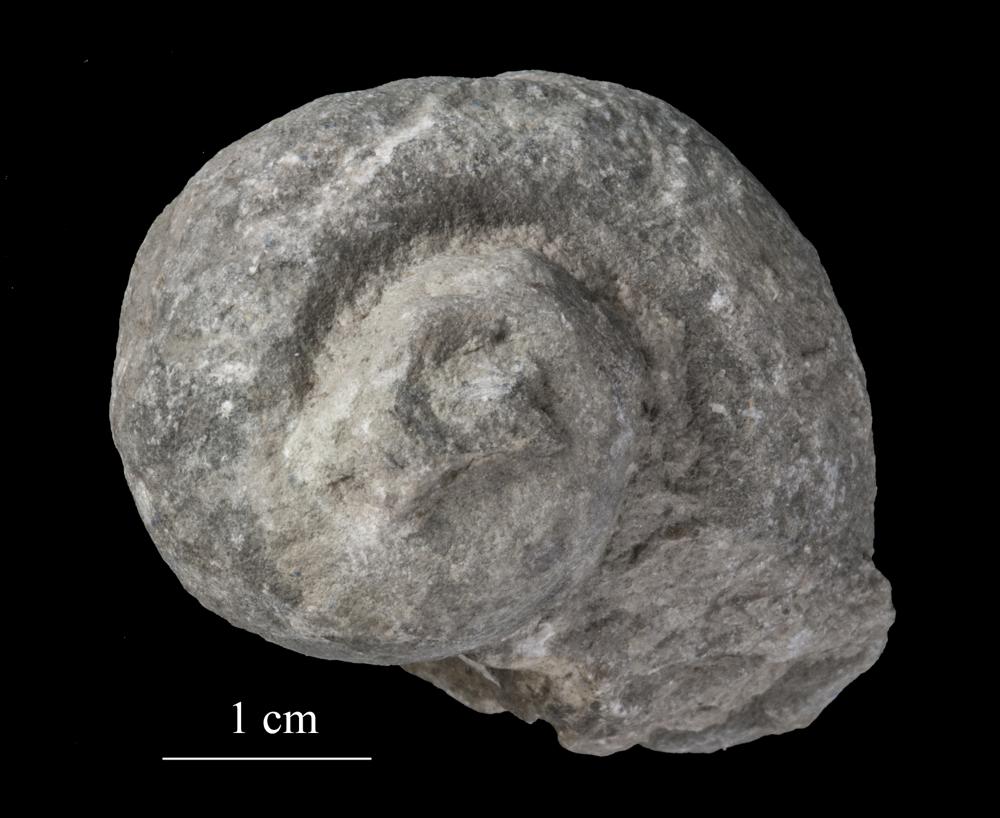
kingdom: Animalia
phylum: Mollusca
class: Gastropoda
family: Holopeidae
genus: Holopea
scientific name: Holopea
